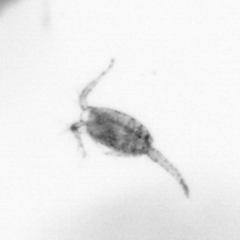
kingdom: Animalia
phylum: Arthropoda
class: Copepoda
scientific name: Copepoda
